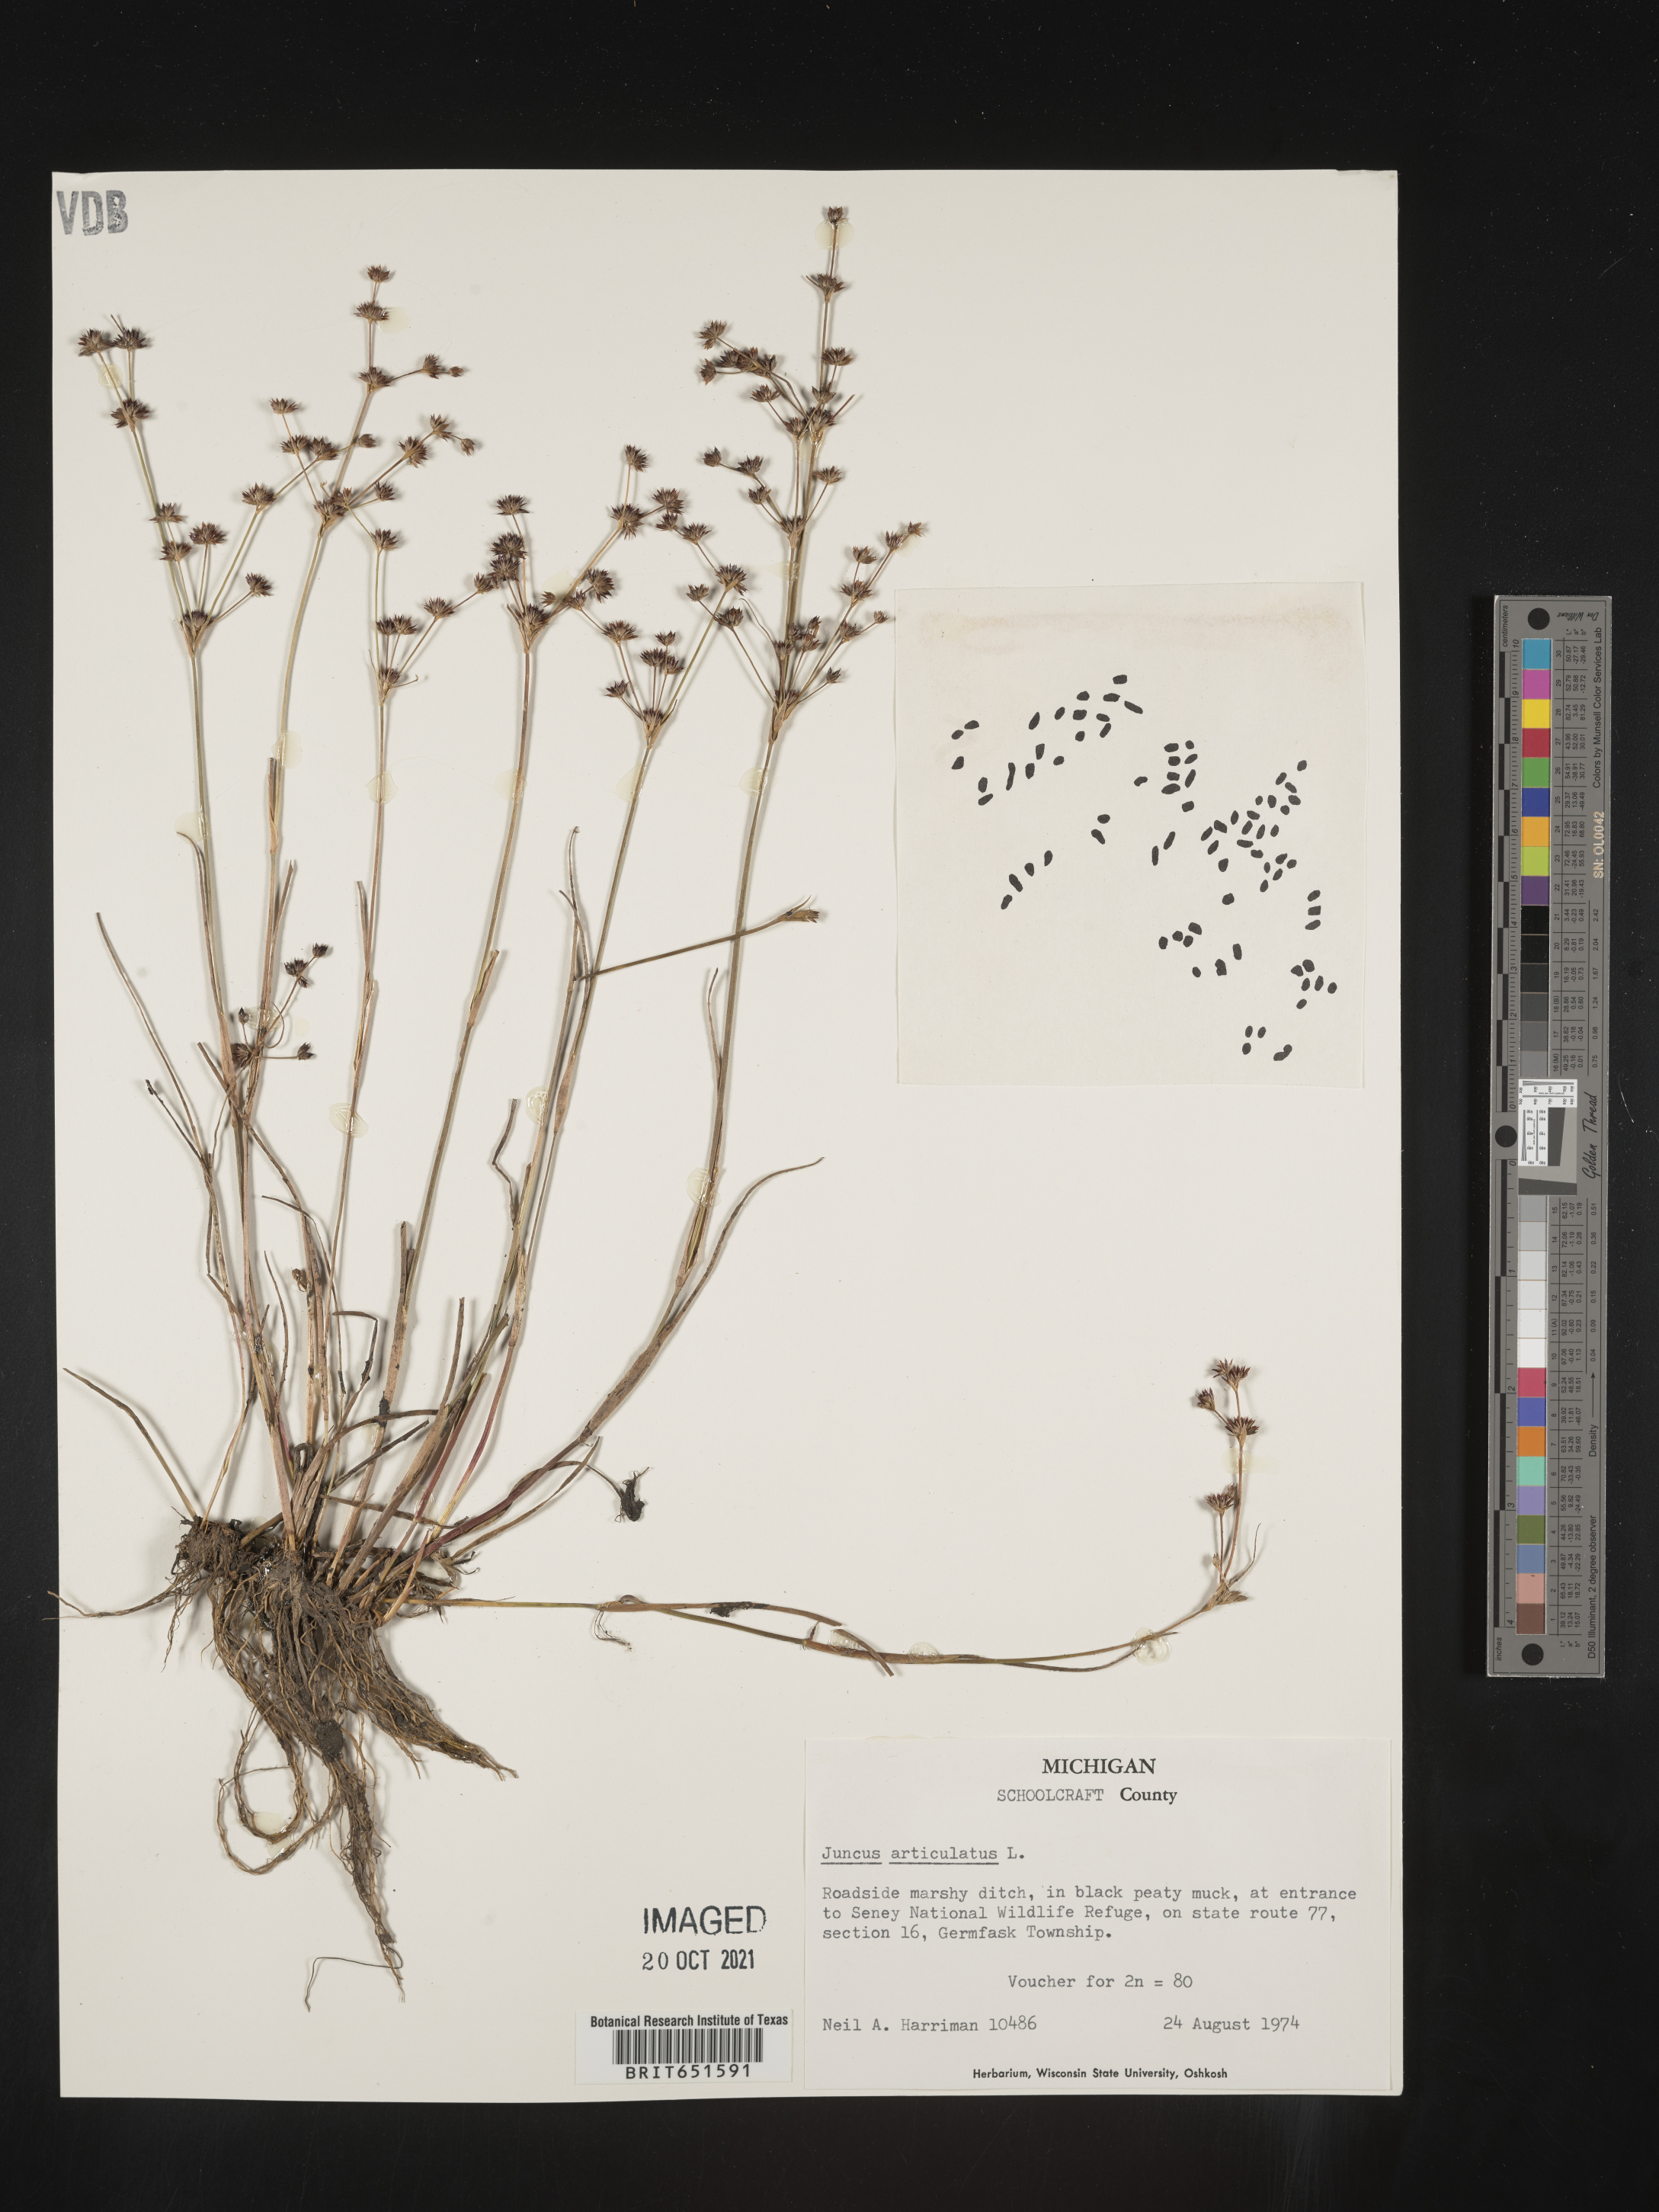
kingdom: Plantae
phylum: Tracheophyta
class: Liliopsida
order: Poales
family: Juncaceae
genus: Juncus
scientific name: Juncus articulatus
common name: Jointed rush
